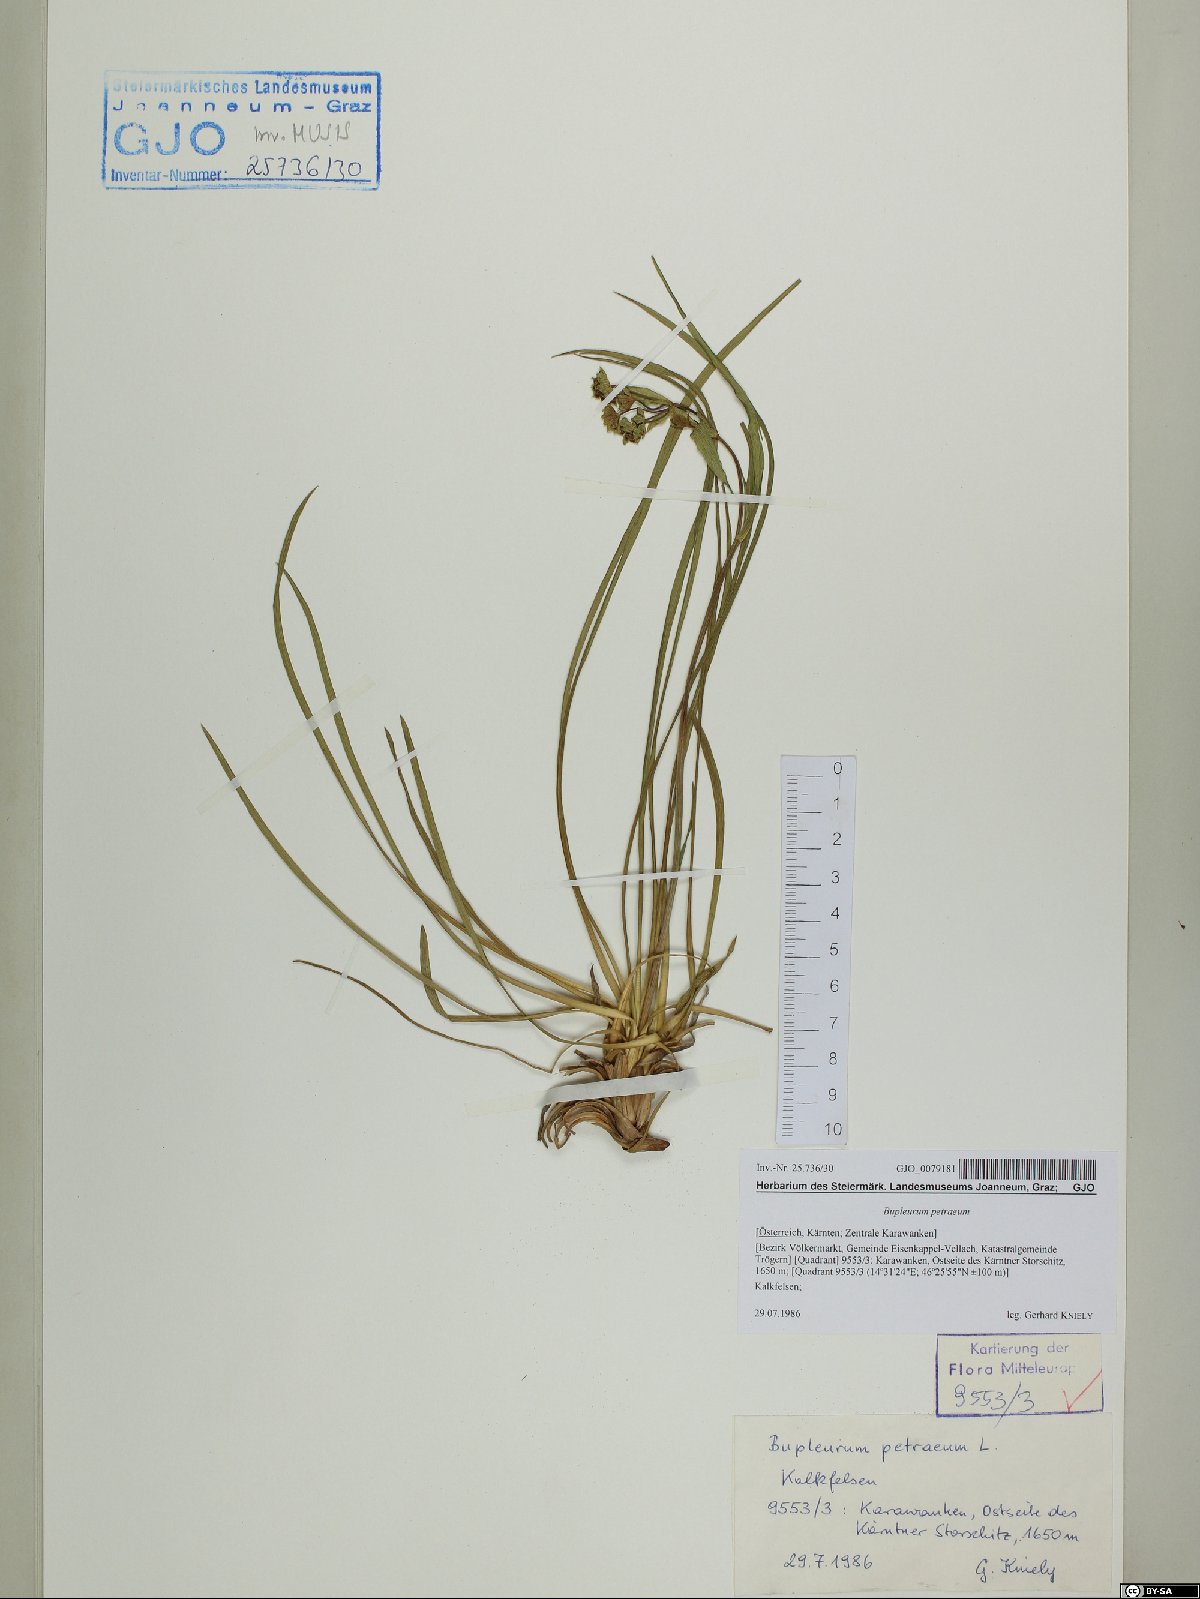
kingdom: Plantae
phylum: Tracheophyta
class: Magnoliopsida
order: Apiales
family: Apiaceae
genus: Bupleurum
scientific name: Bupleurum petraeum
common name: Rock hare's-ear
